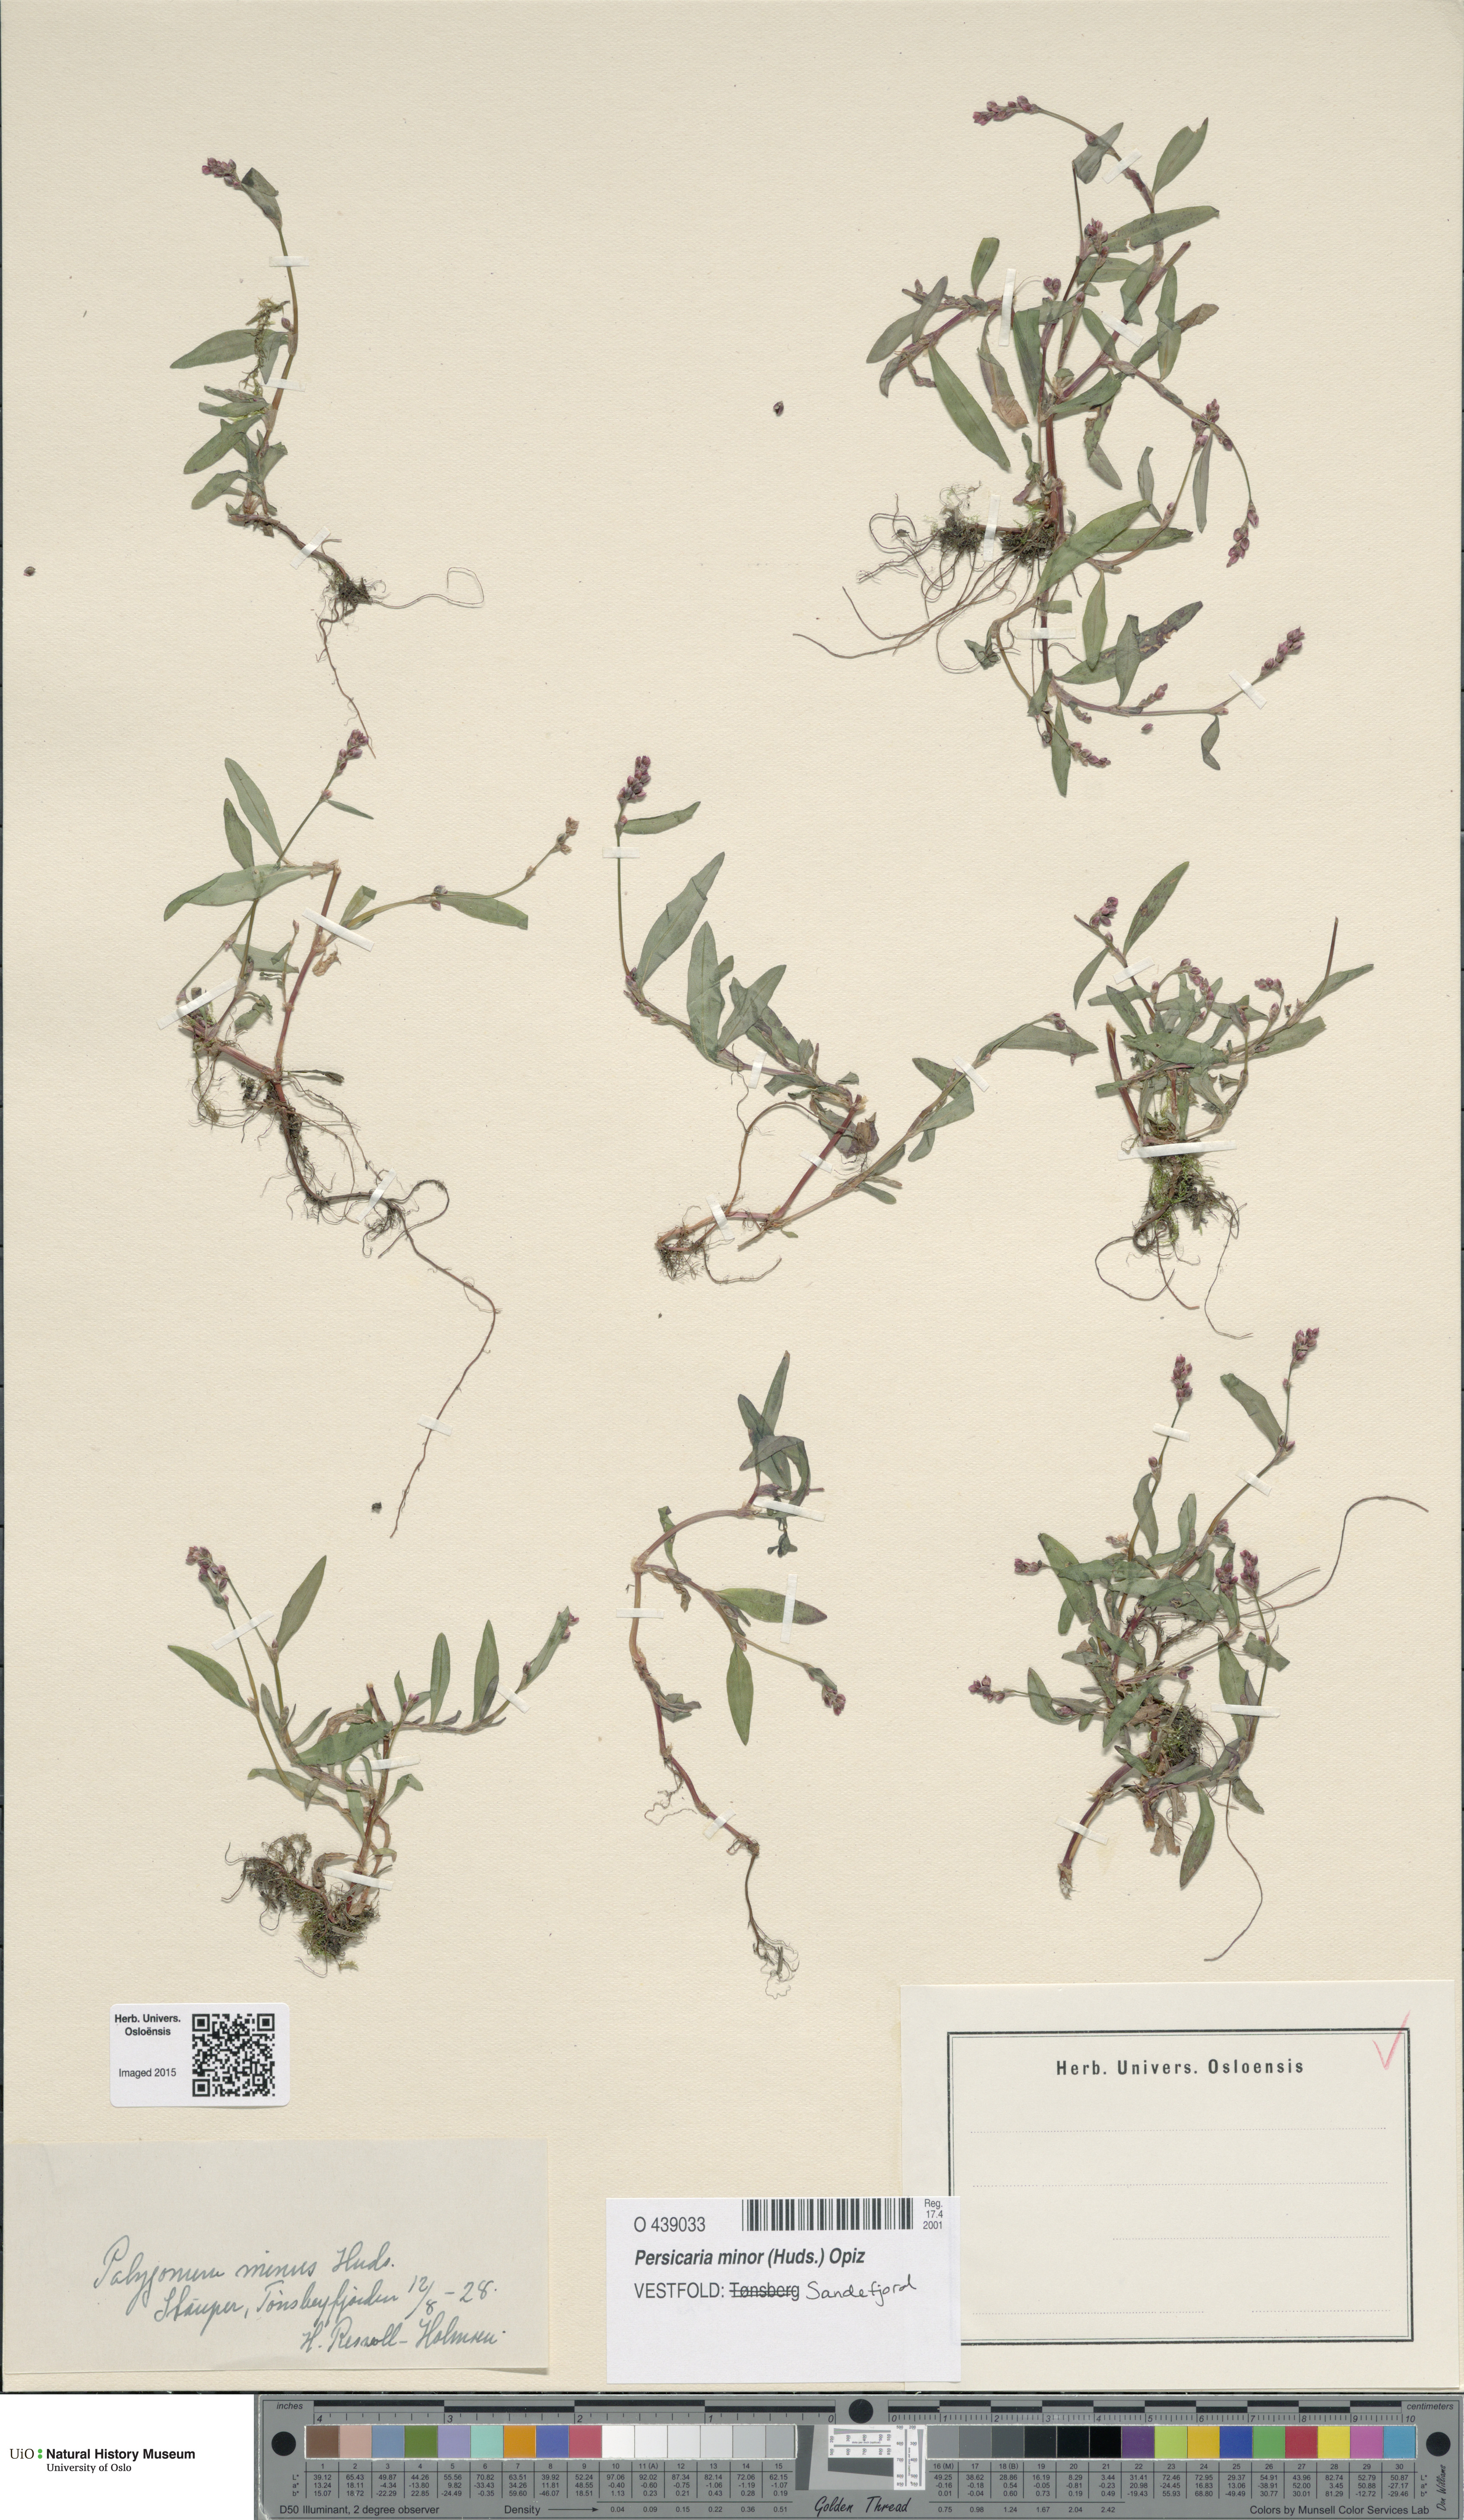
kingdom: Plantae
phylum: Tracheophyta
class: Magnoliopsida
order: Caryophyllales
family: Polygonaceae
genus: Persicaria
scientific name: Persicaria minor
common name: Small water-pepper
